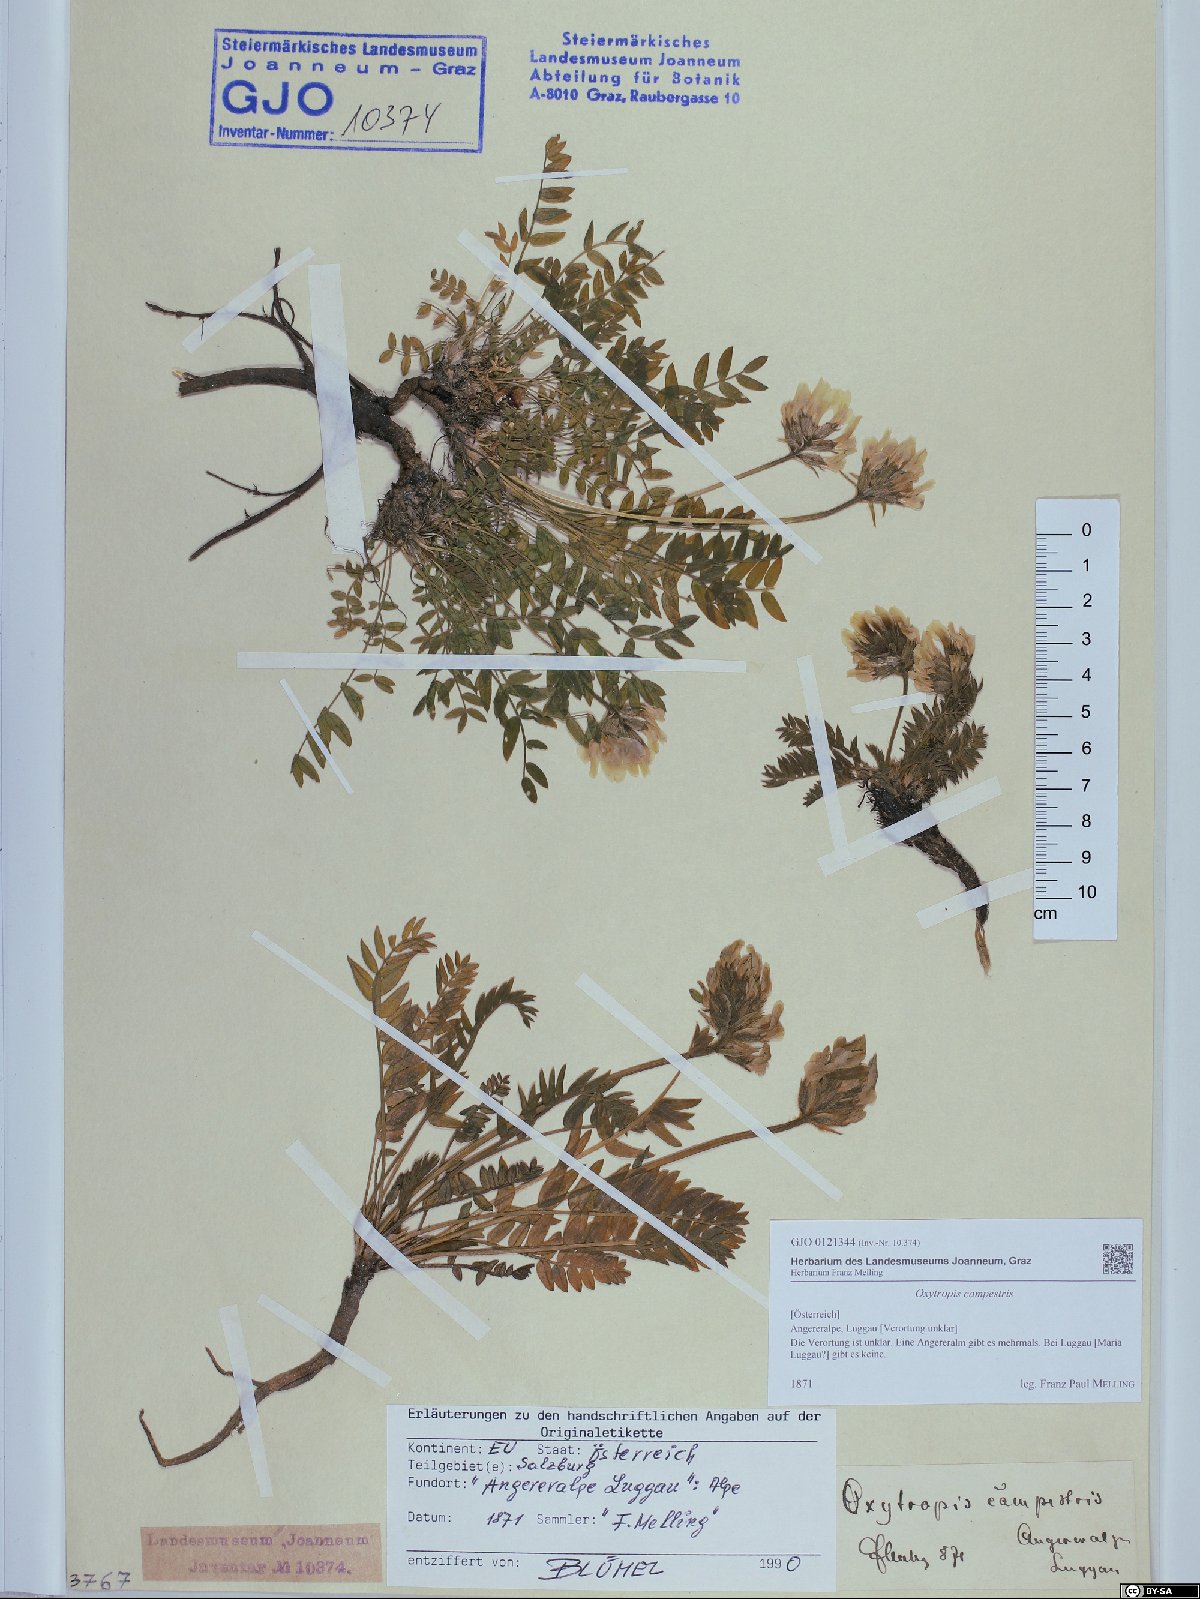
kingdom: Plantae
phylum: Tracheophyta
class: Magnoliopsida
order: Fabales
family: Fabaceae
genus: Oxytropis
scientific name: Oxytropis campestris
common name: Field locoweed
